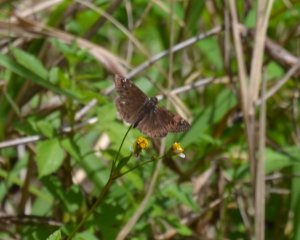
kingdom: Animalia
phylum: Arthropoda
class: Insecta
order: Lepidoptera
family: Hesperiidae
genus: Gesta
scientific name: Gesta
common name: Horace's Duskywing
